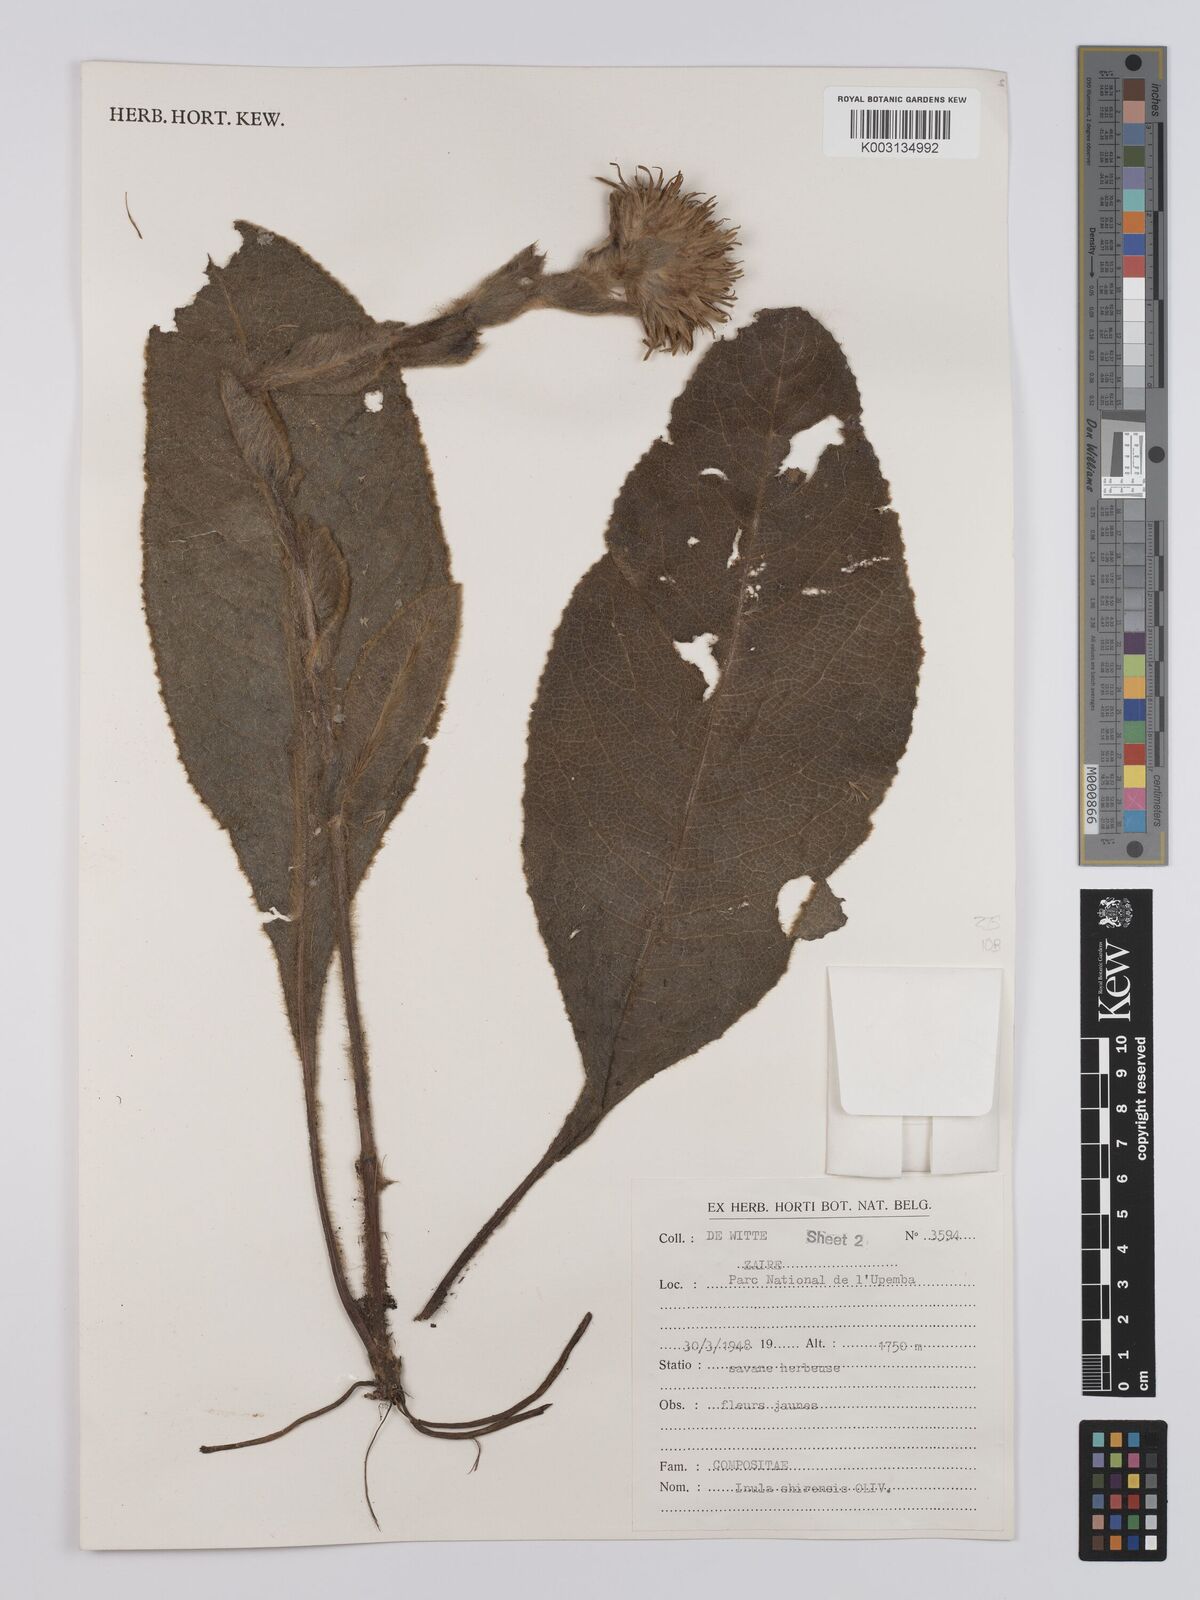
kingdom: Plantae
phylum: Tracheophyta
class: Magnoliopsida
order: Asterales
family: Asteraceae
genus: Monactinocephalus
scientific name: Monactinocephalus shirensis
